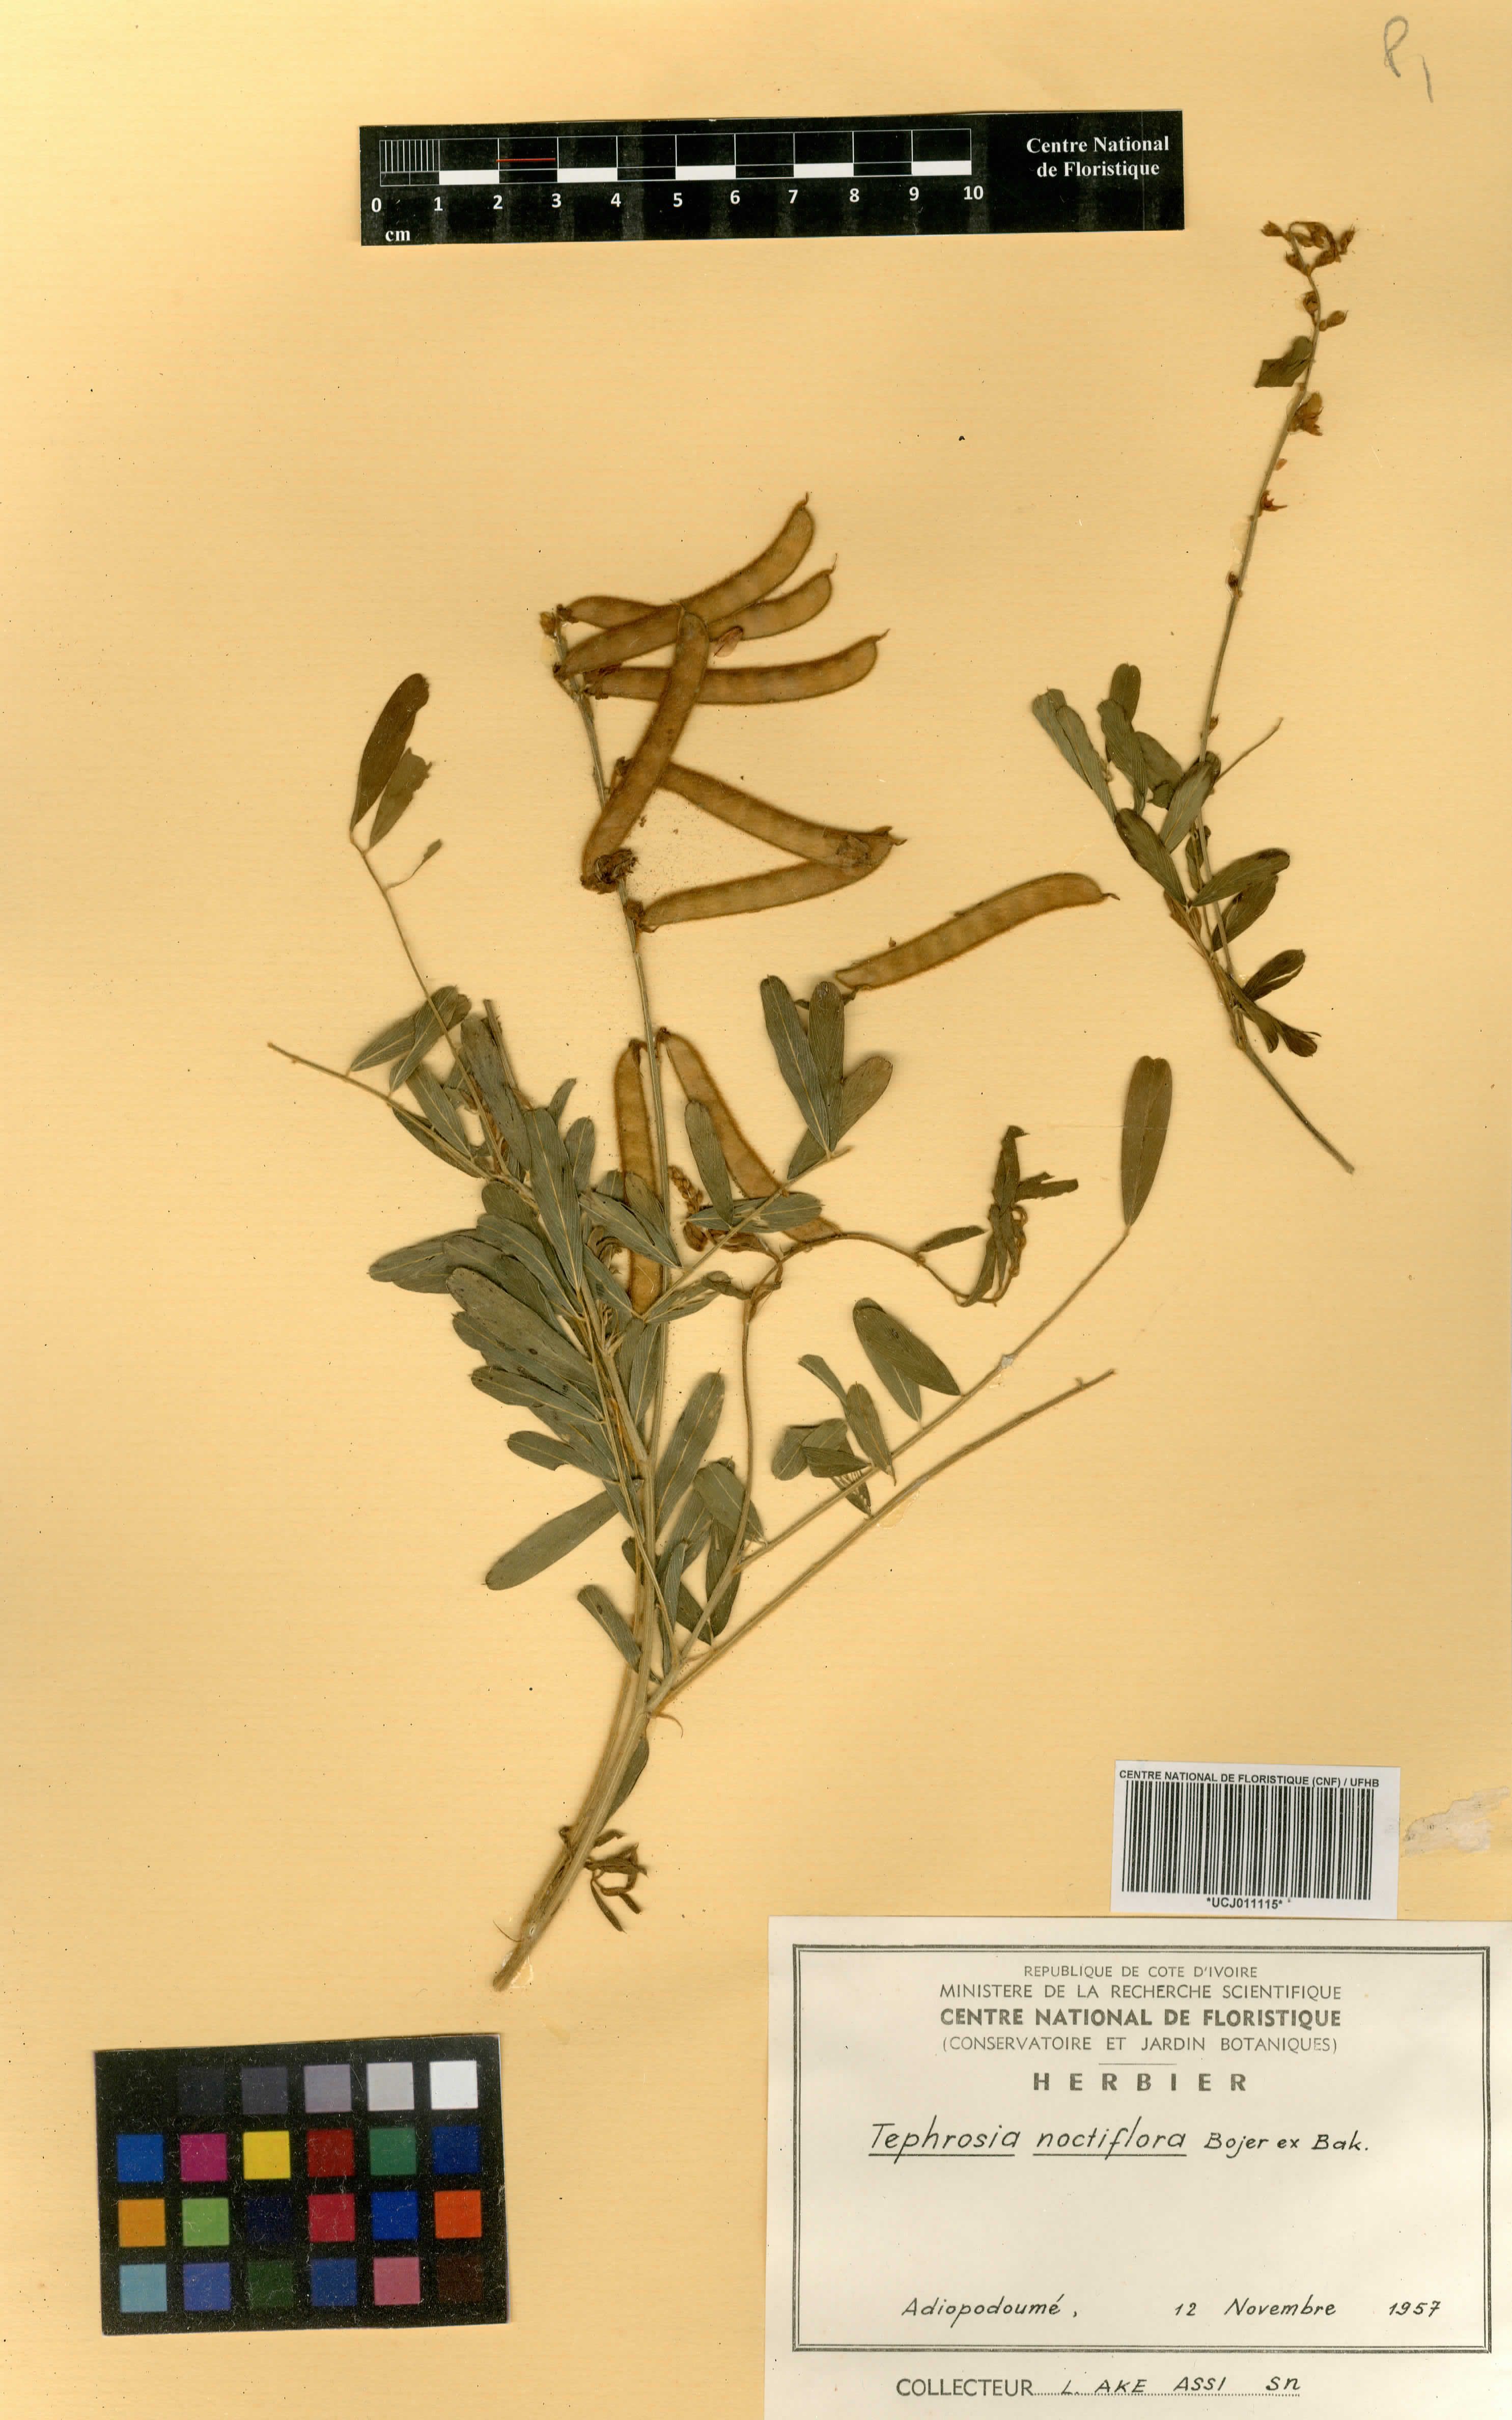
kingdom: Plantae
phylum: Tracheophyta
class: Magnoliopsida
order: Fabales
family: Fabaceae
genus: Tephrosia
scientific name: Tephrosia noctiflora
